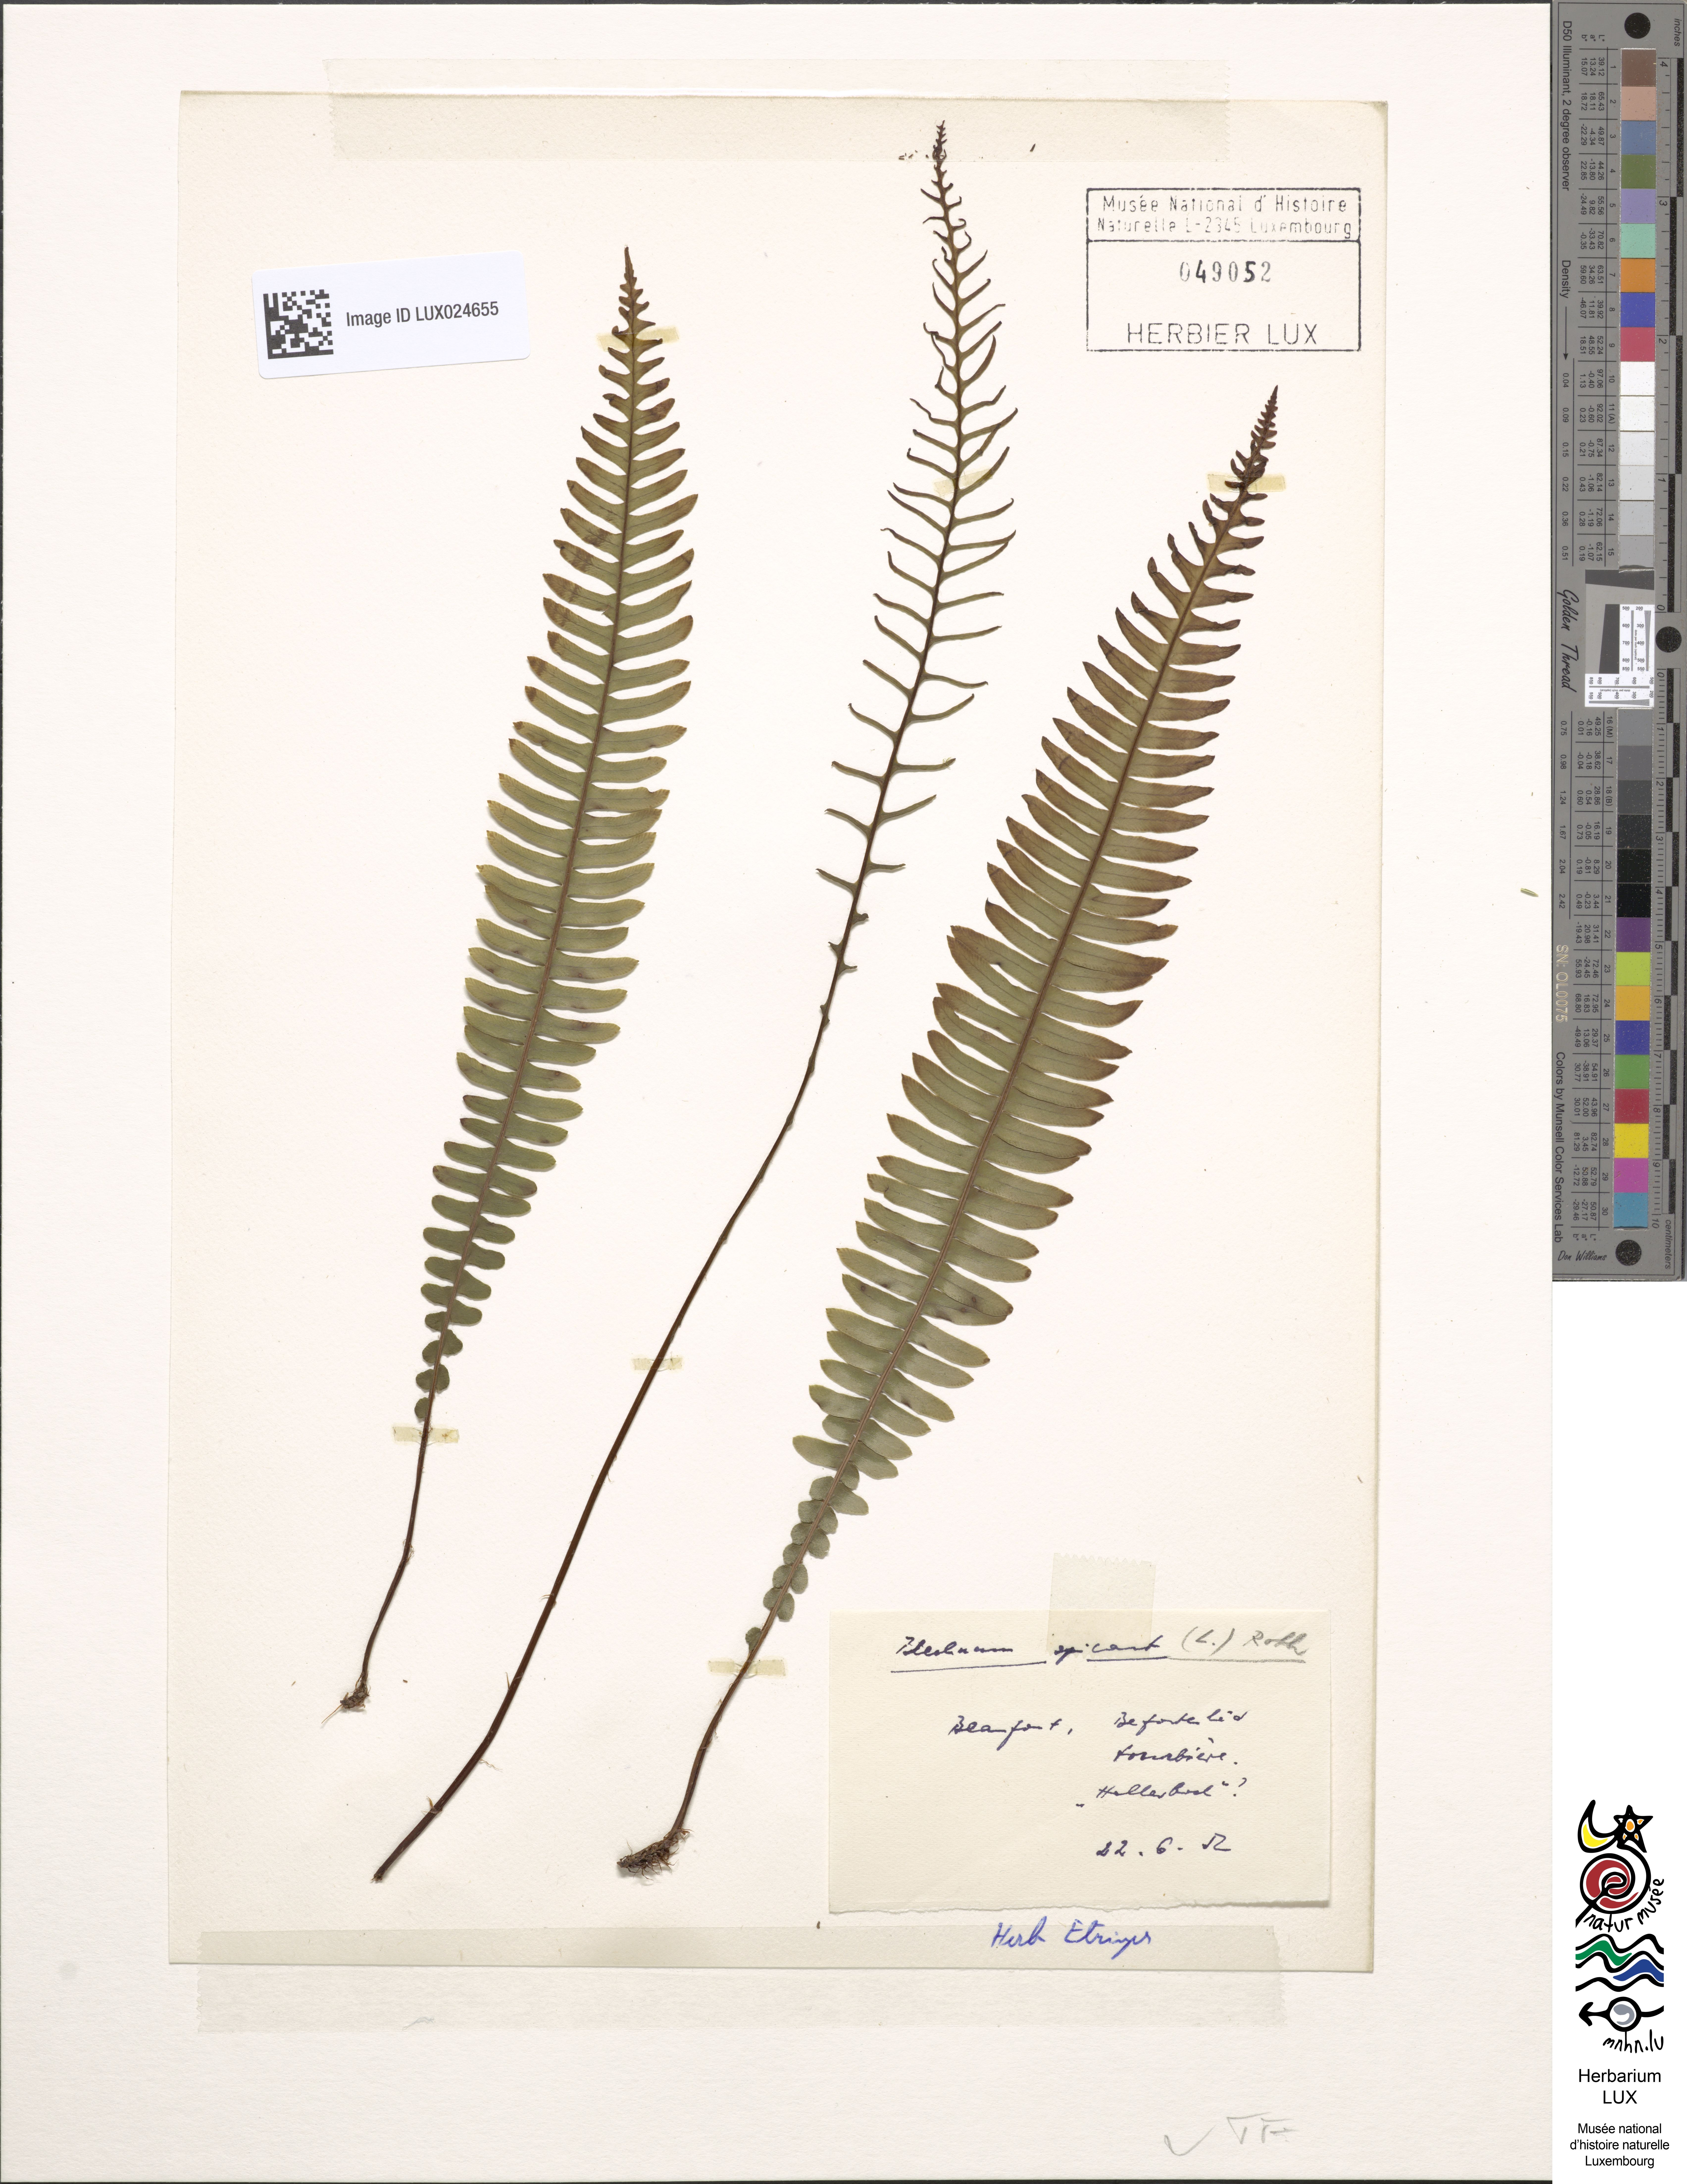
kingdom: Plantae
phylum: Tracheophyta
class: Polypodiopsida
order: Polypodiales
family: Blechnaceae
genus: Struthiopteris
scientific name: Struthiopteris spicant
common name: Deer fern
